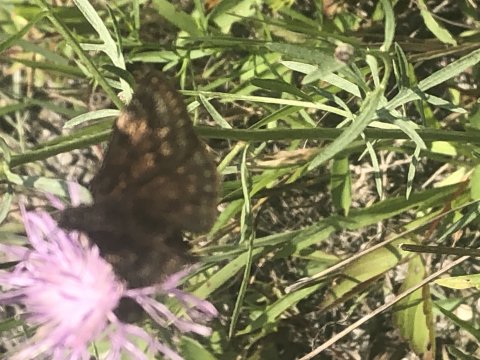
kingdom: Animalia
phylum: Arthropoda
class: Insecta
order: Lepidoptera
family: Hesperiidae
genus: Gesta
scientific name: Gesta
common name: Wild Indigo Duskywing
